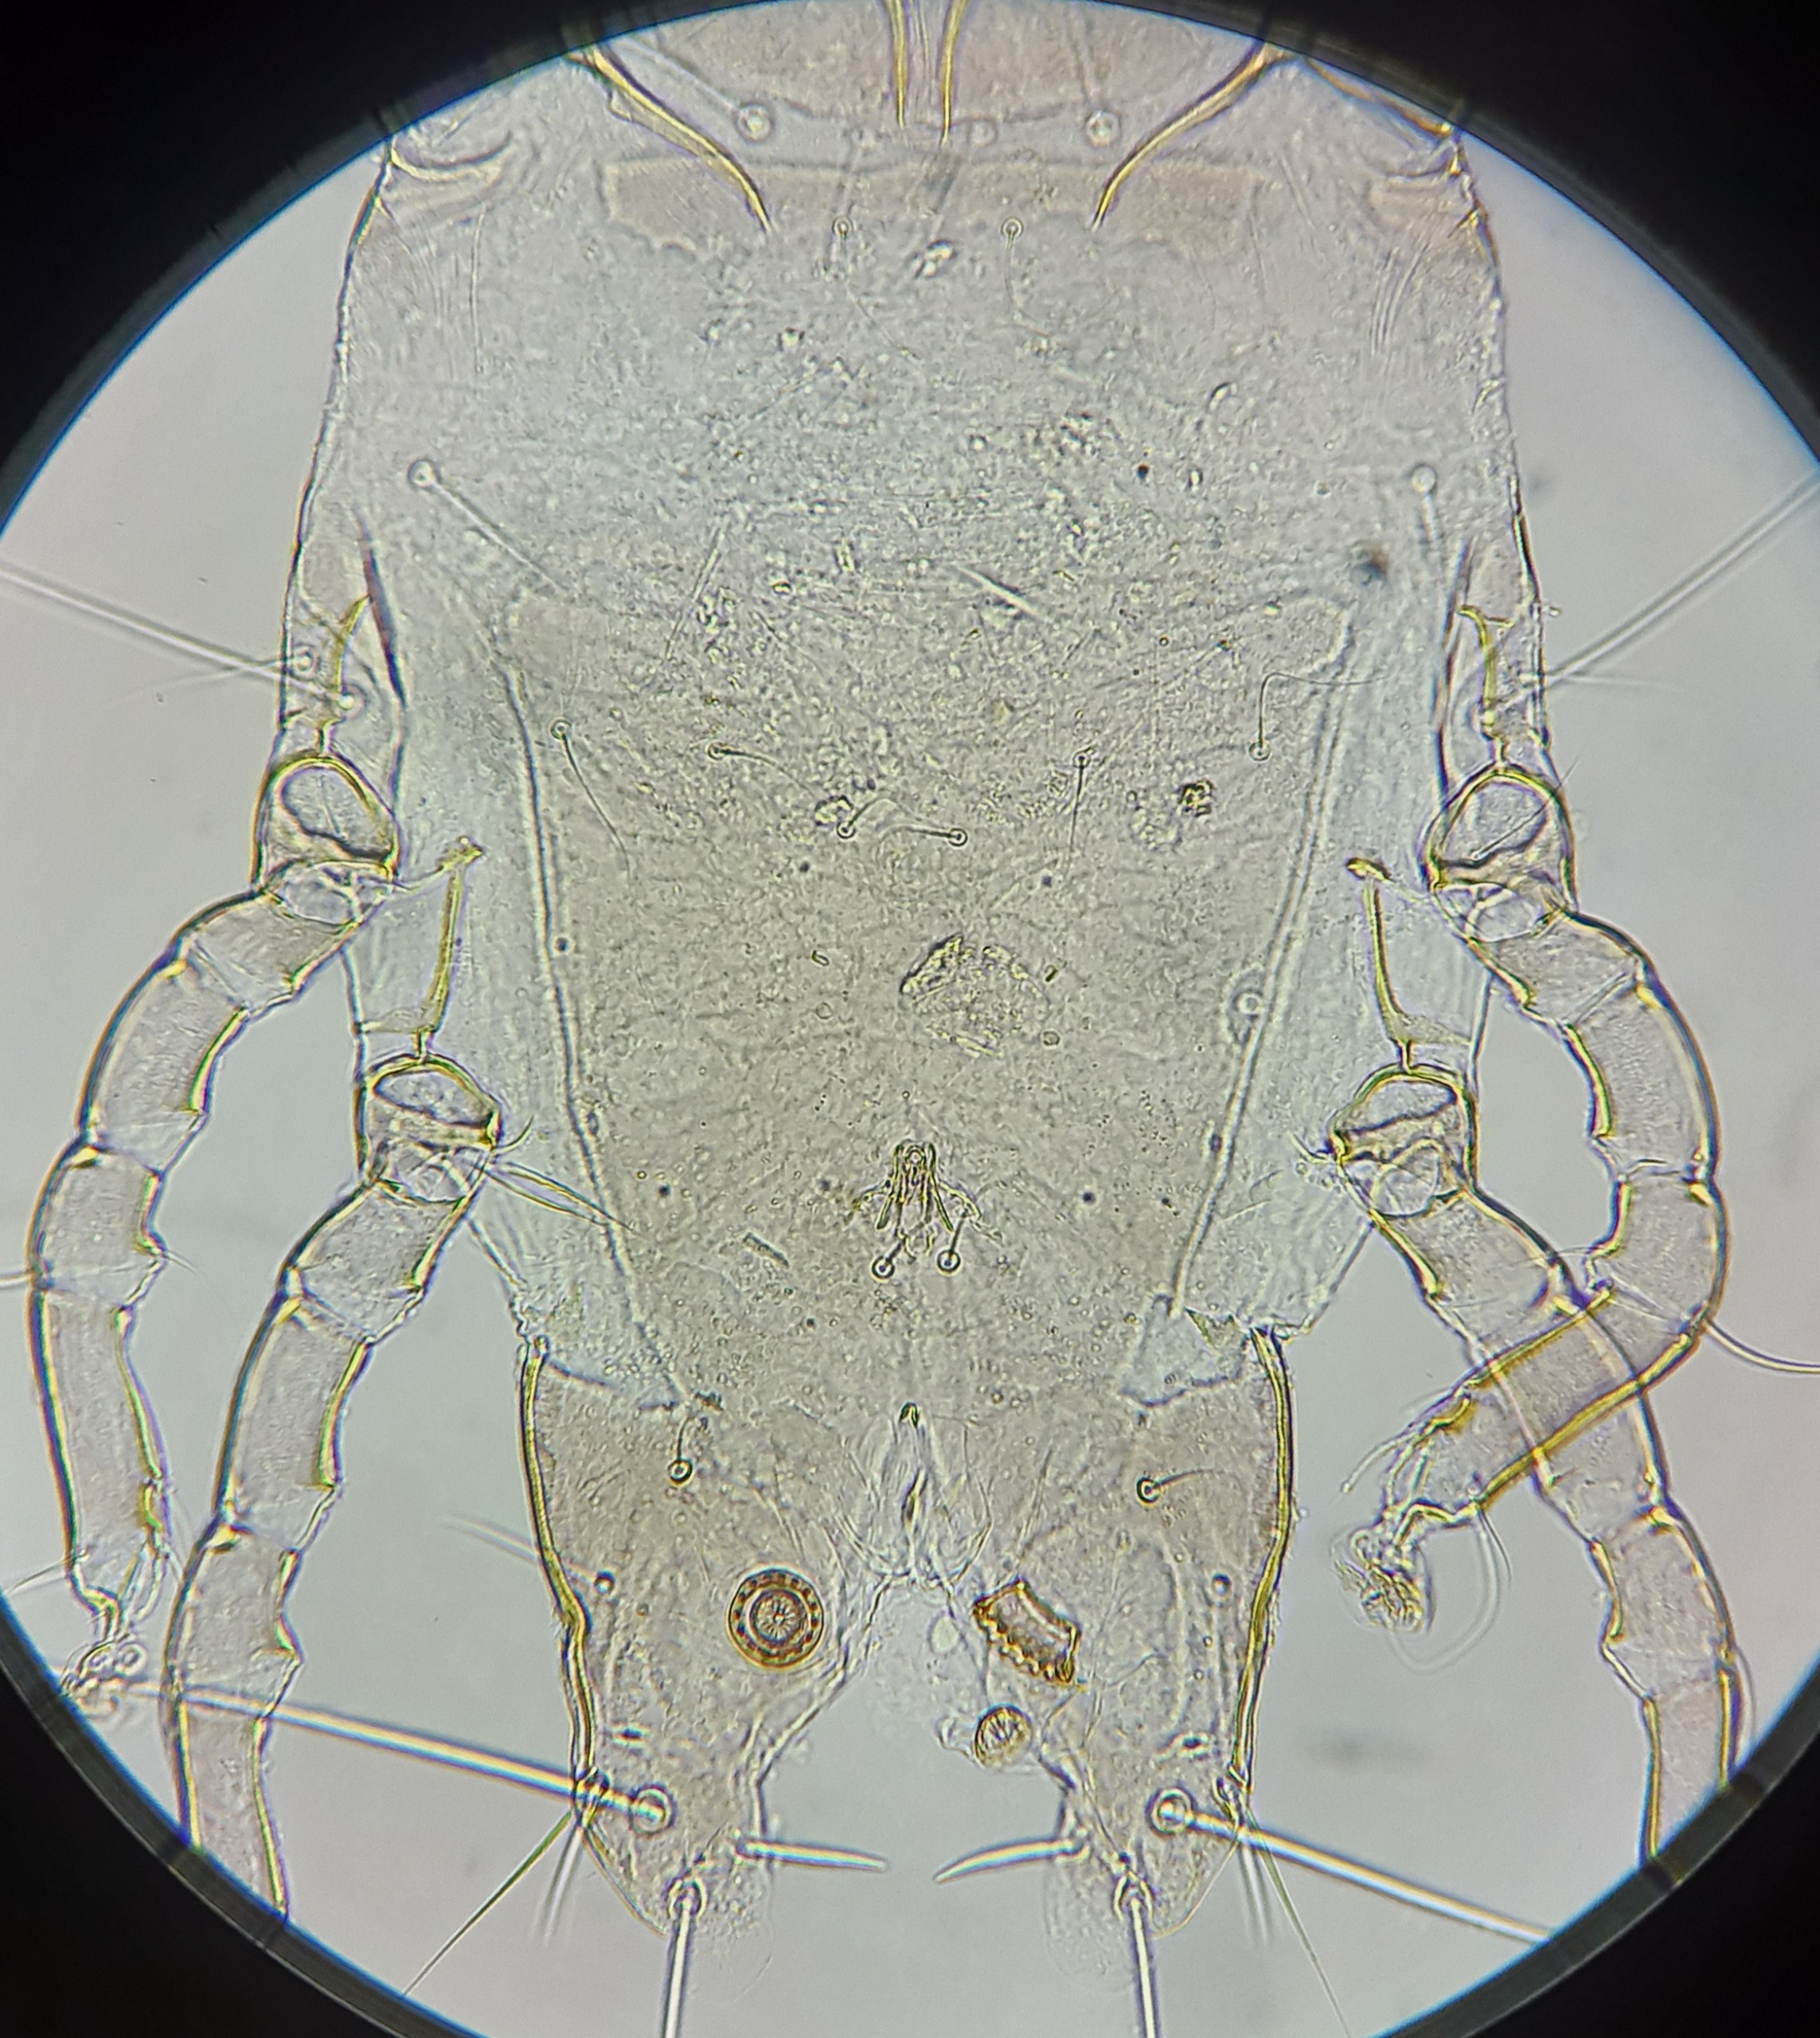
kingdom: Animalia
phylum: Arthropoda
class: Arachnida
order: Sarcoptiformes
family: Gabuciniidae
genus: Hieracolichus
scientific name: Hieracolichus nisi
